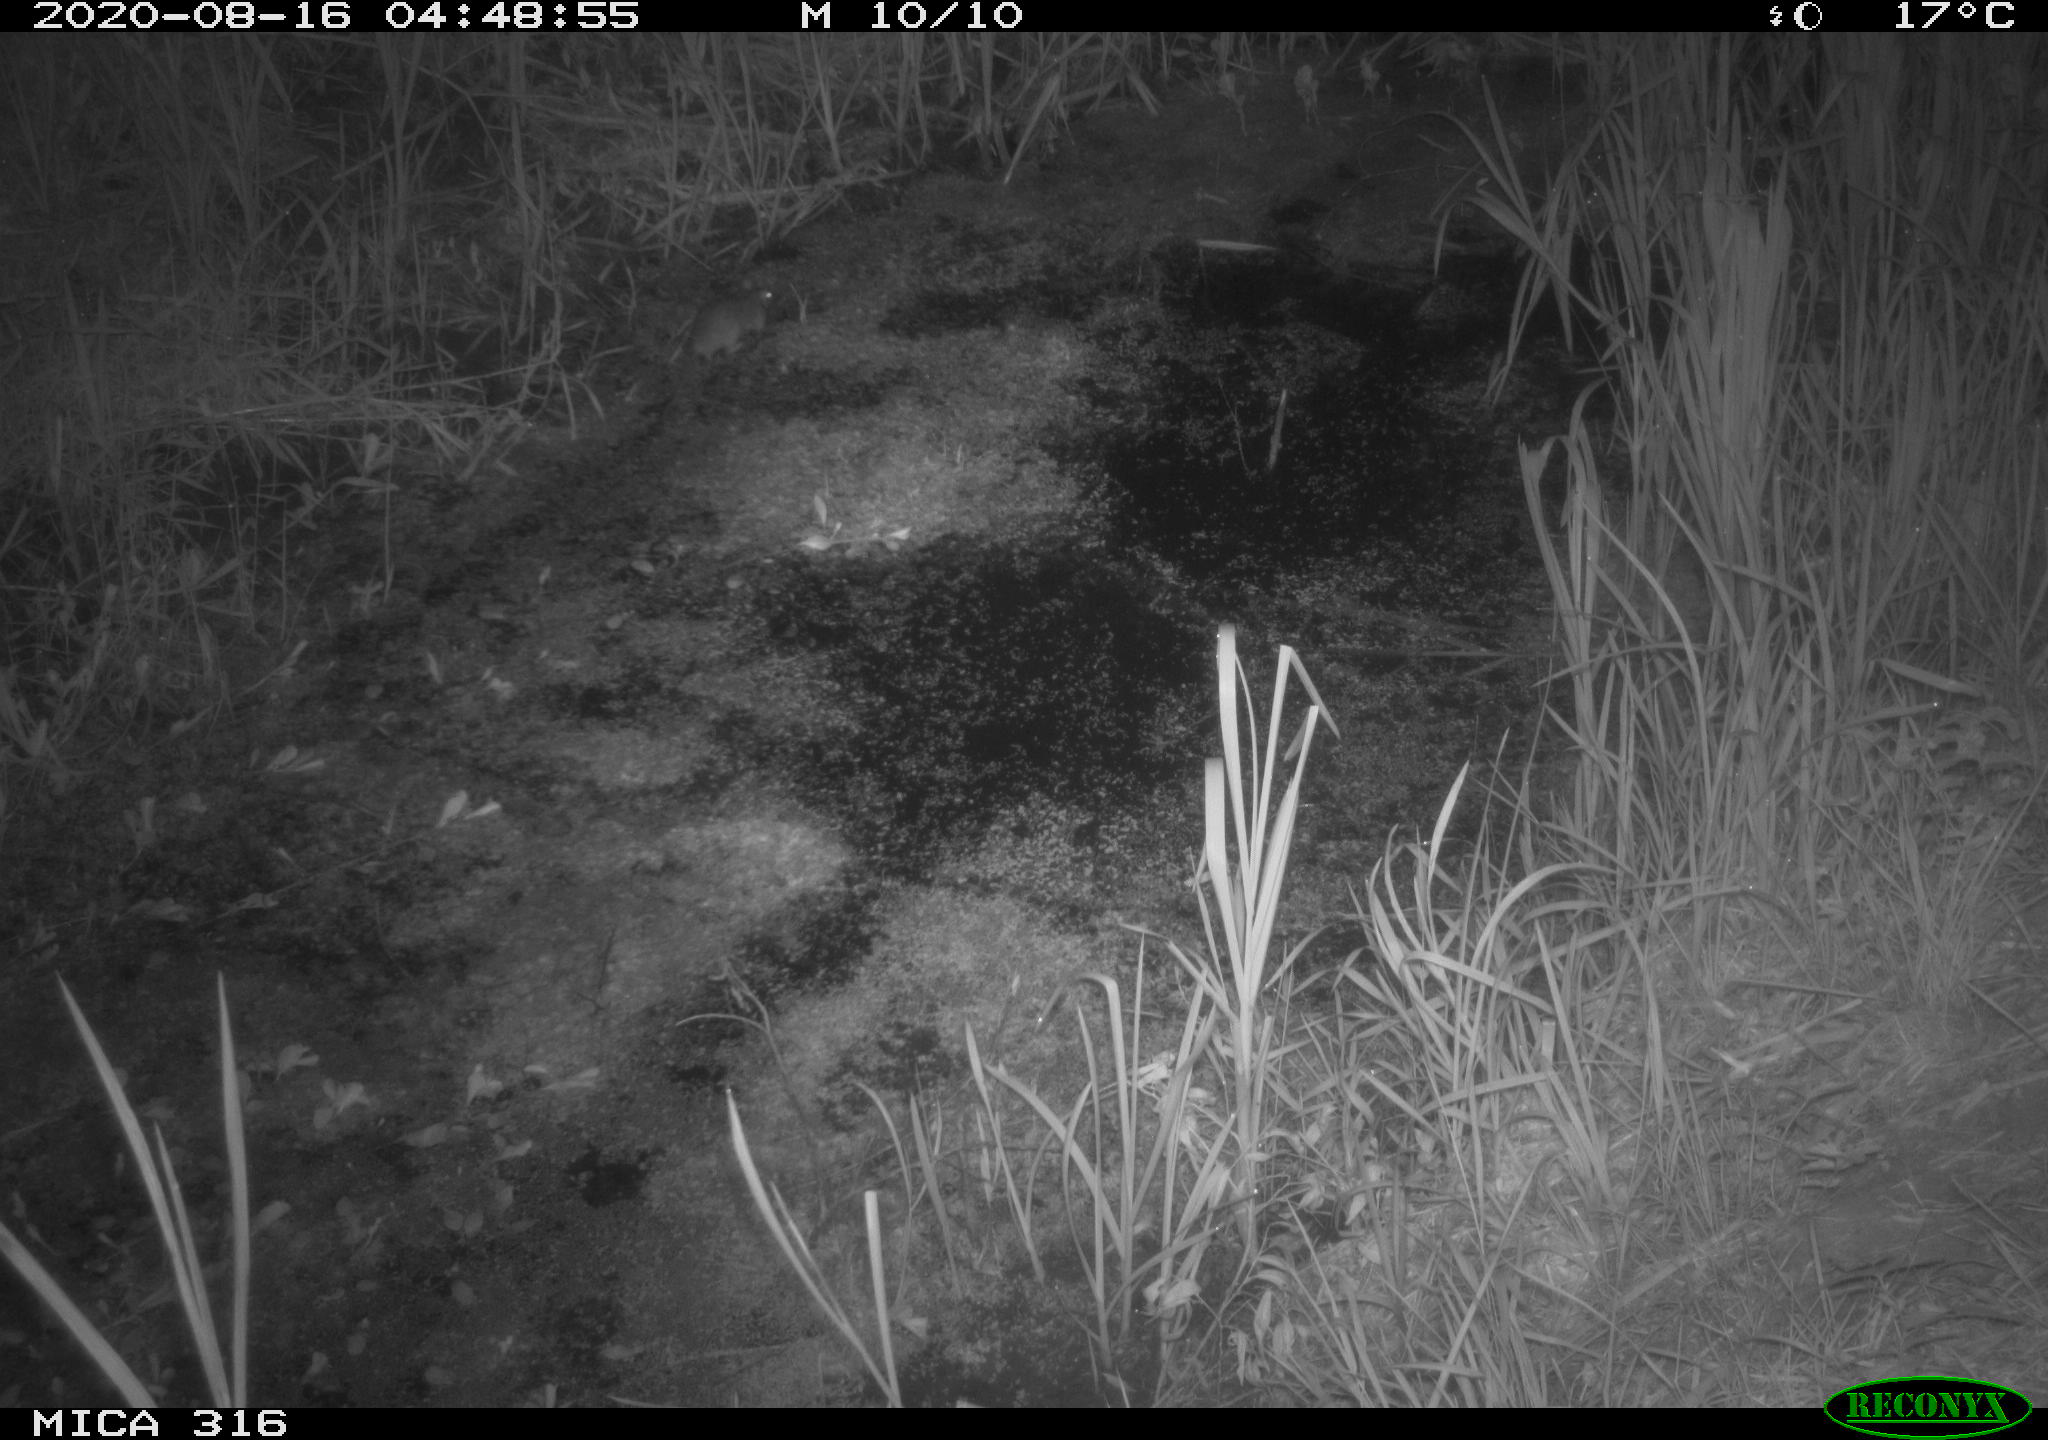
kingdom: Animalia
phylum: Chordata
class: Mammalia
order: Rodentia
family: Muridae
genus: Rattus
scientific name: Rattus norvegicus
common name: Brown rat
